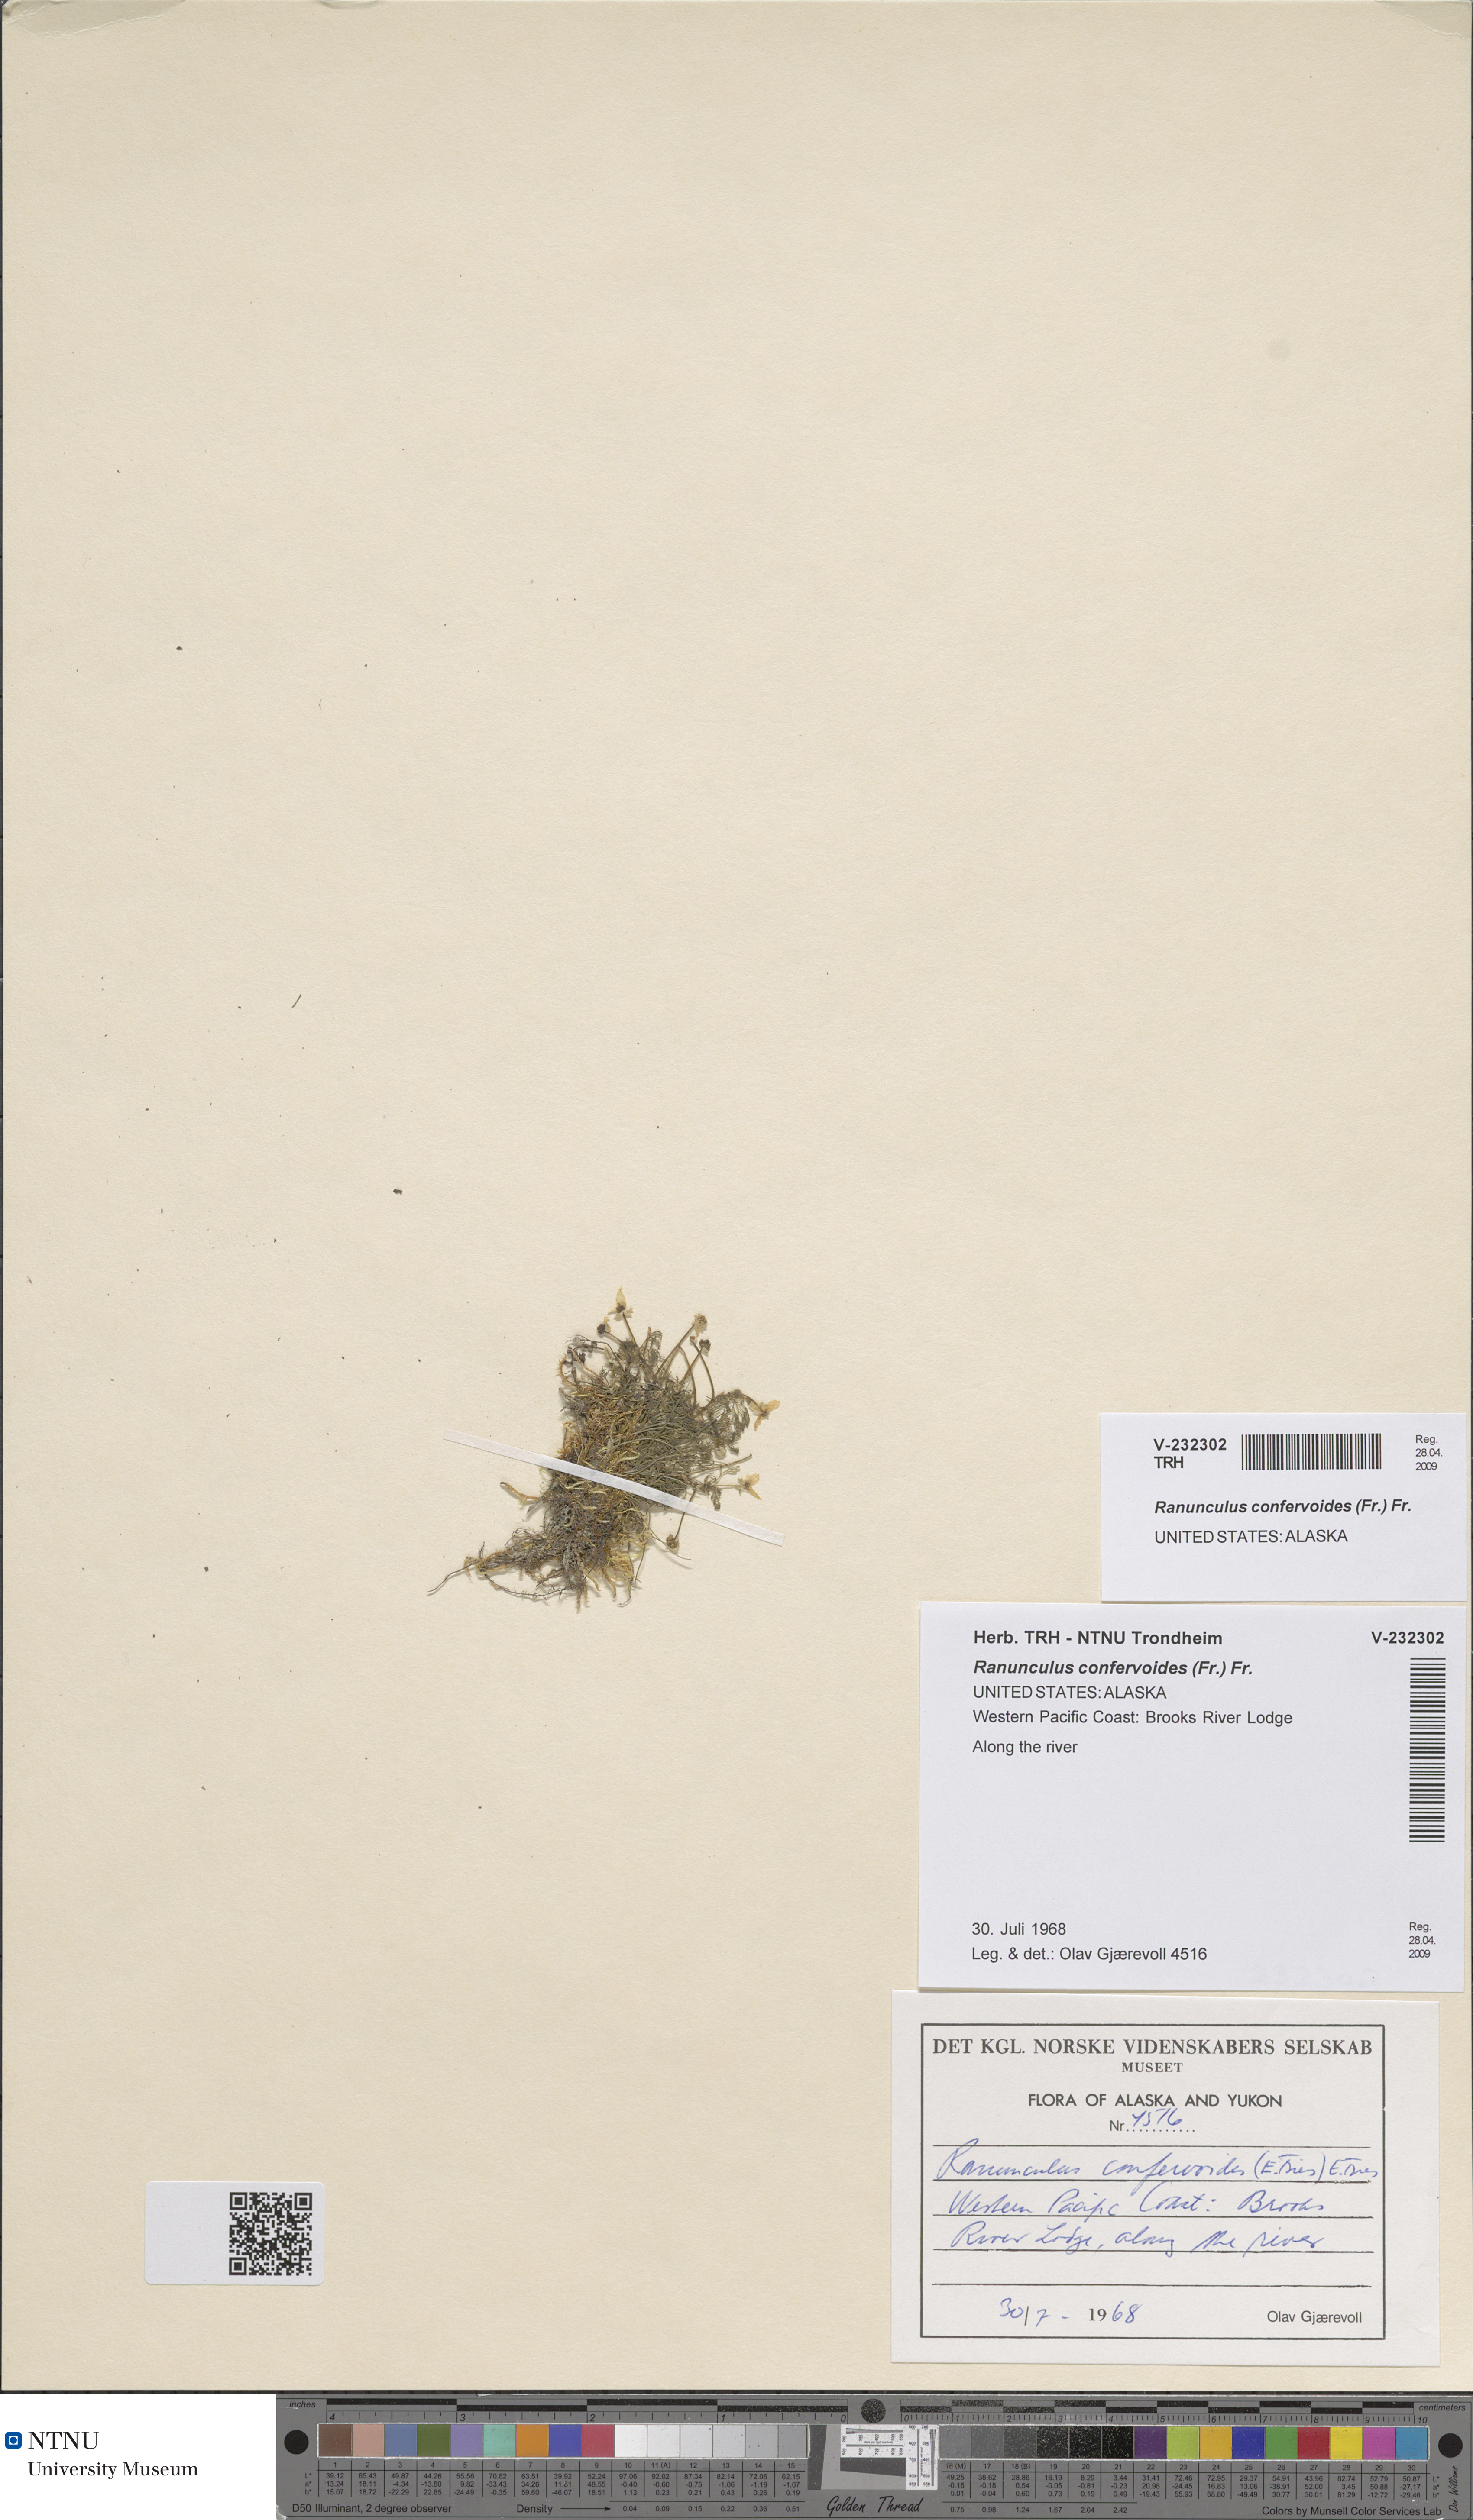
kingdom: Plantae
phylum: Tracheophyta
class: Magnoliopsida
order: Ranunculales
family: Ranunculaceae
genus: Ranunculus
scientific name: Ranunculus confervoides
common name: Delicate buttercup
